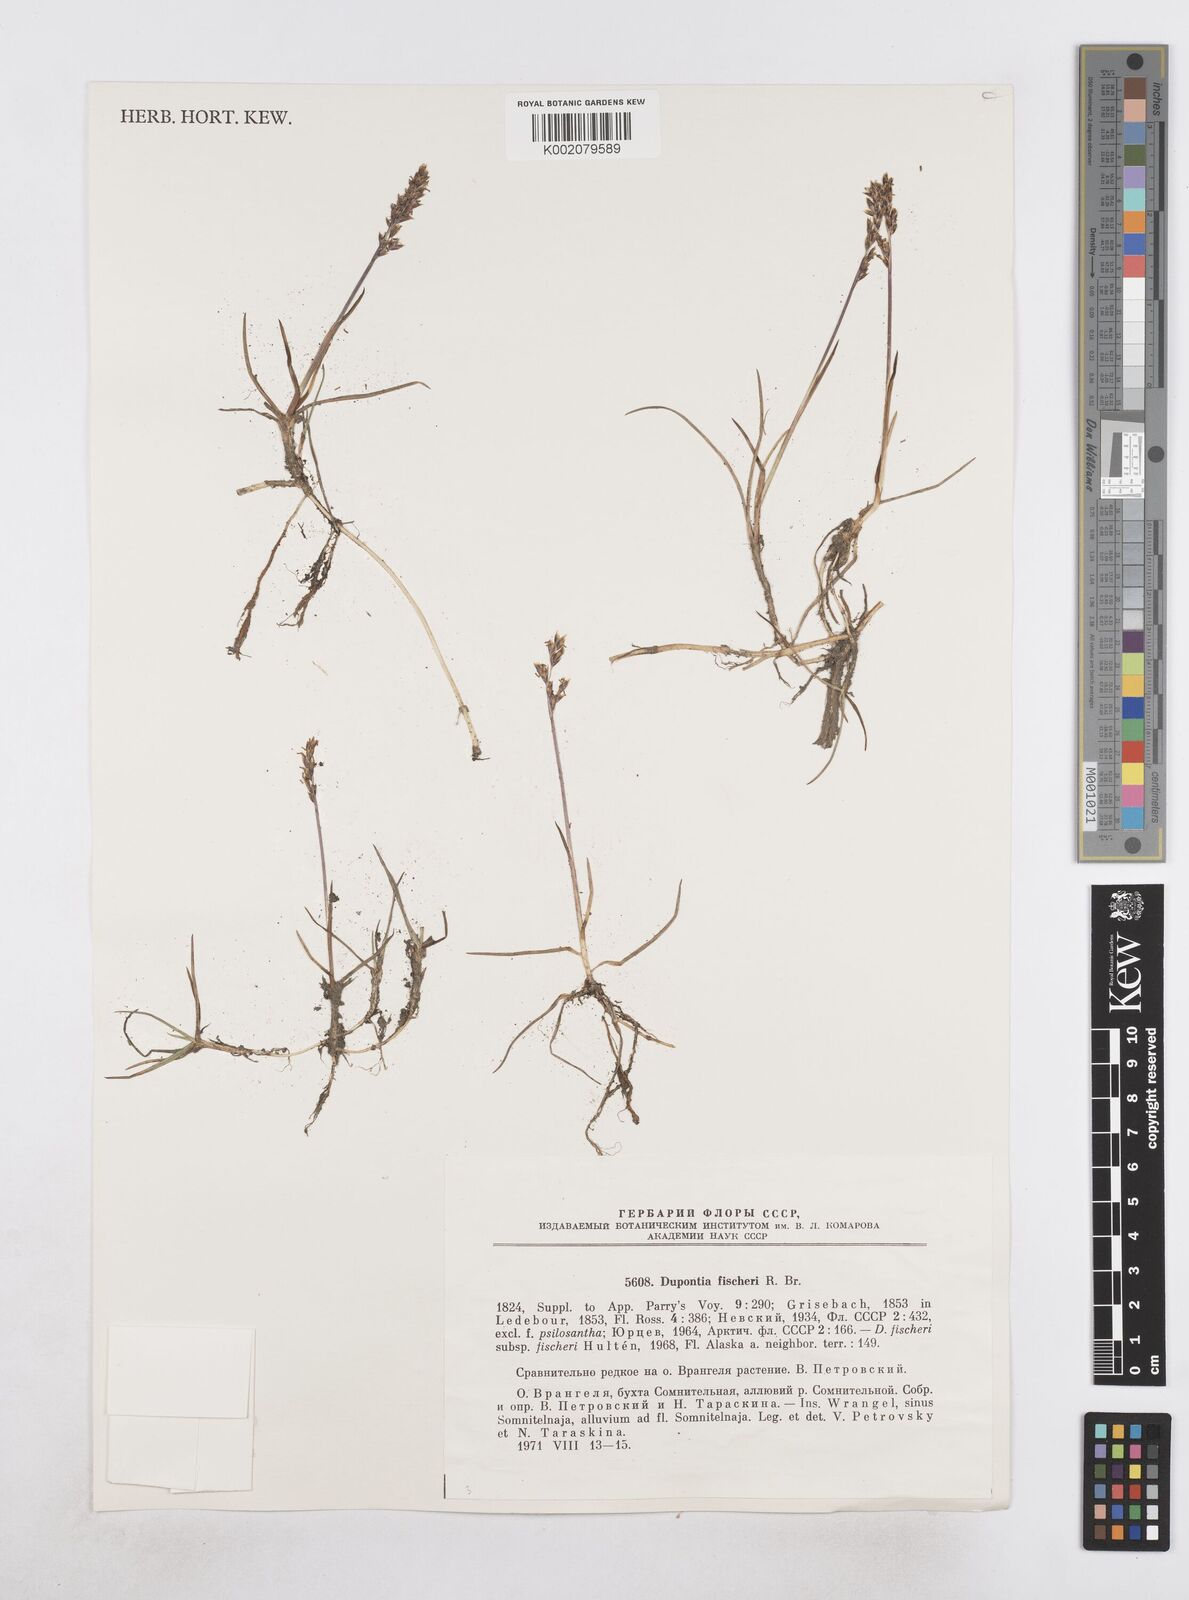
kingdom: Plantae
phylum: Tracheophyta
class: Liliopsida
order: Poales
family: Poaceae
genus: Dupontia
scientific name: Dupontia fisheri
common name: Tundra grass
